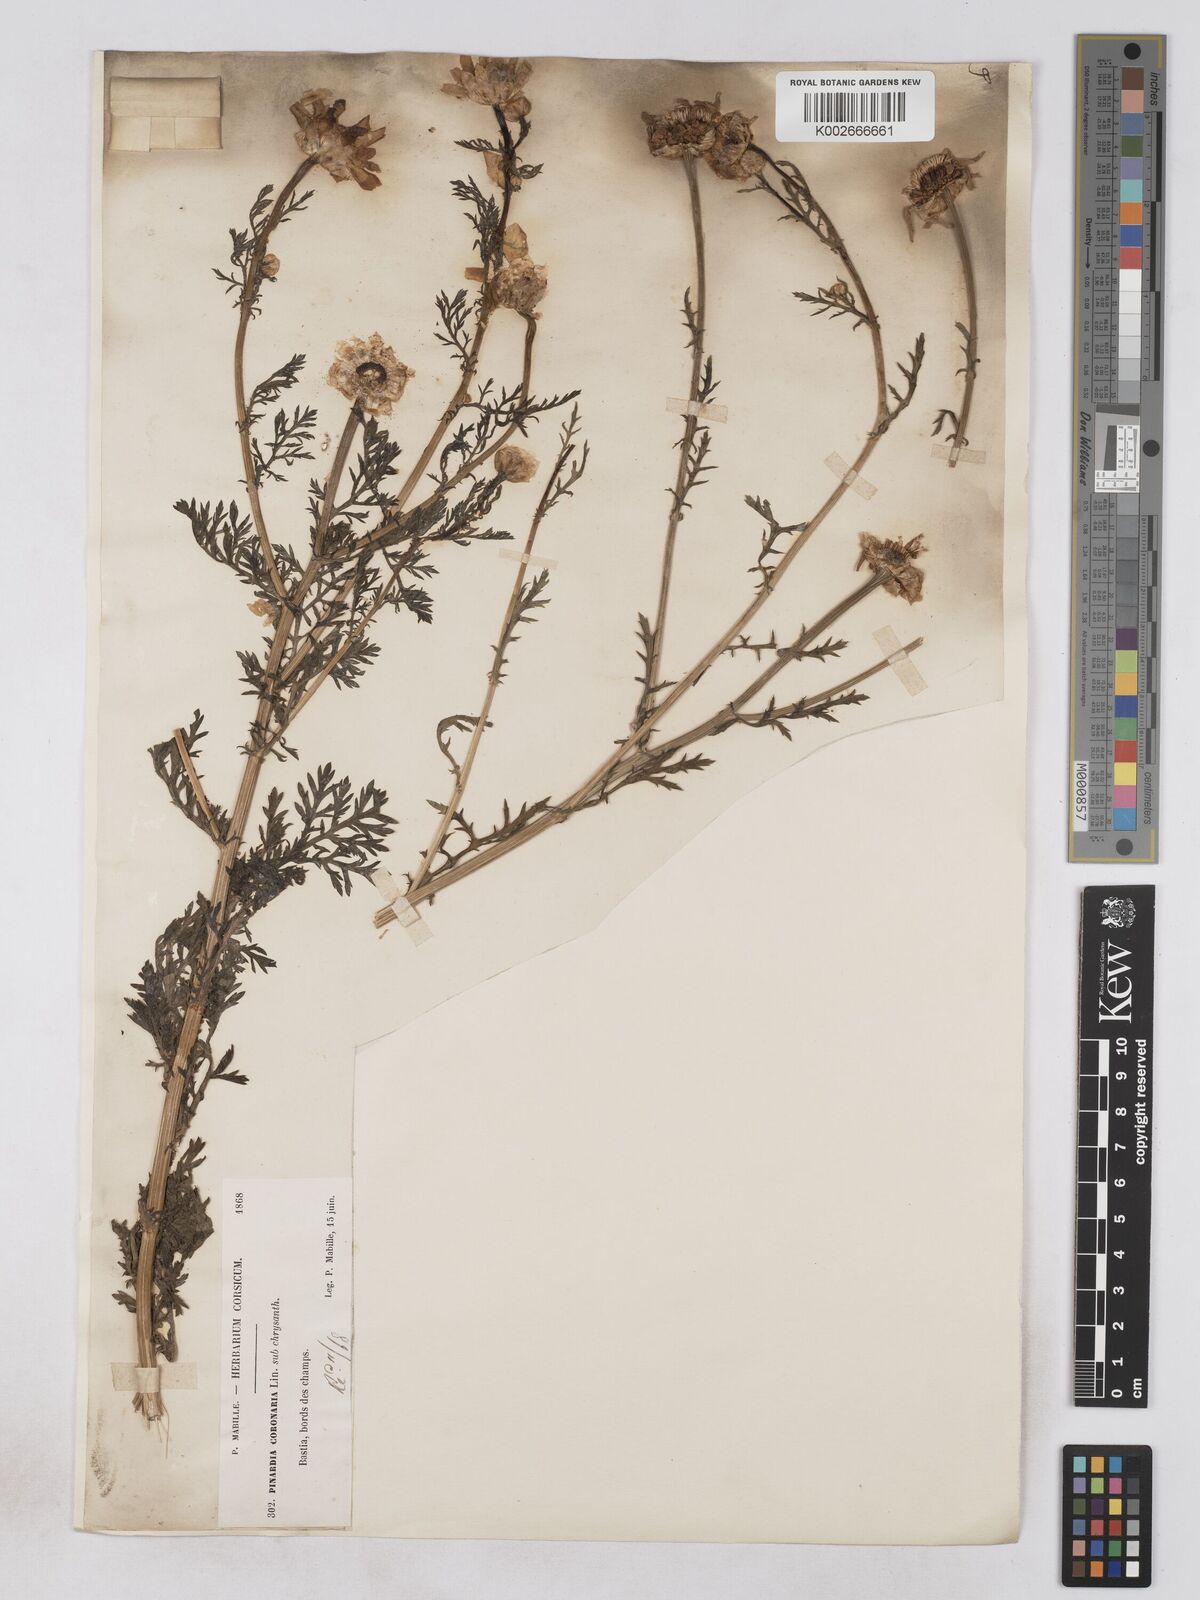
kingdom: Plantae
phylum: Tracheophyta
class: Magnoliopsida
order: Asterales
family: Asteraceae
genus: Glebionis
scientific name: Glebionis coronaria
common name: Crowndaisy
